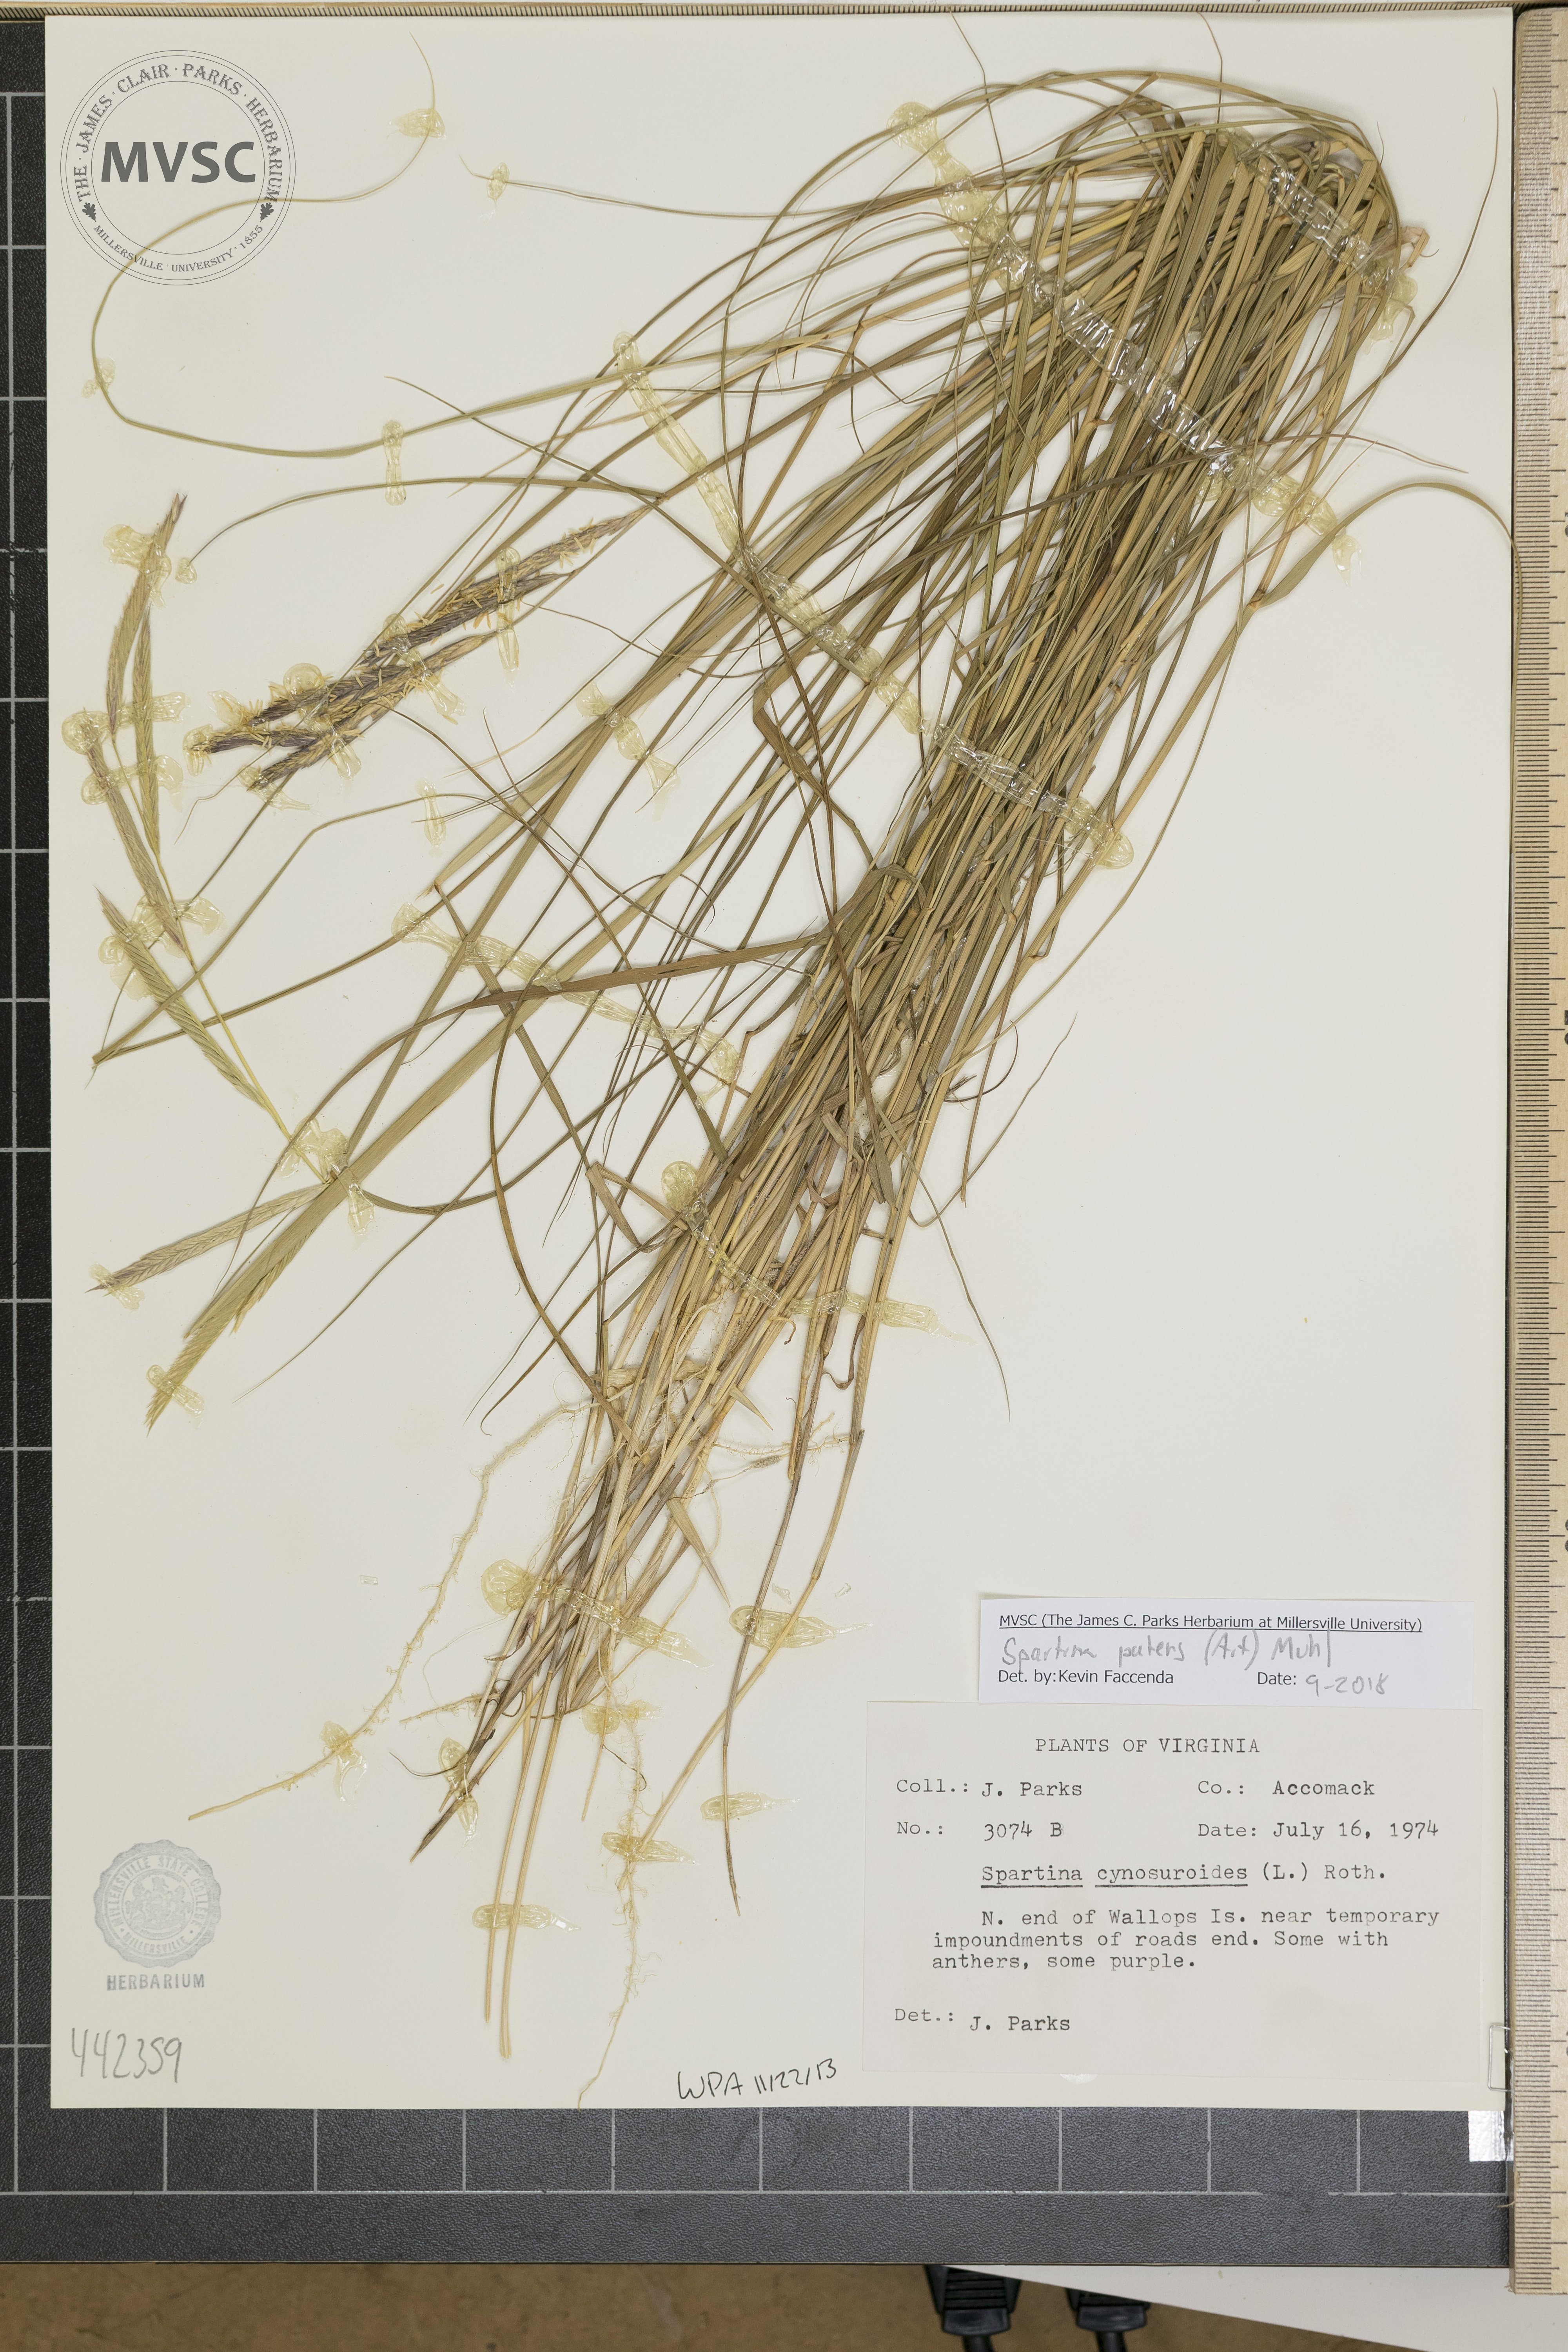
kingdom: Plantae
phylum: Tracheophyta
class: Liliopsida
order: Poales
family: Poaceae
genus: Sporobolus
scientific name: Sporobolus pumilus
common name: Highwater grass
